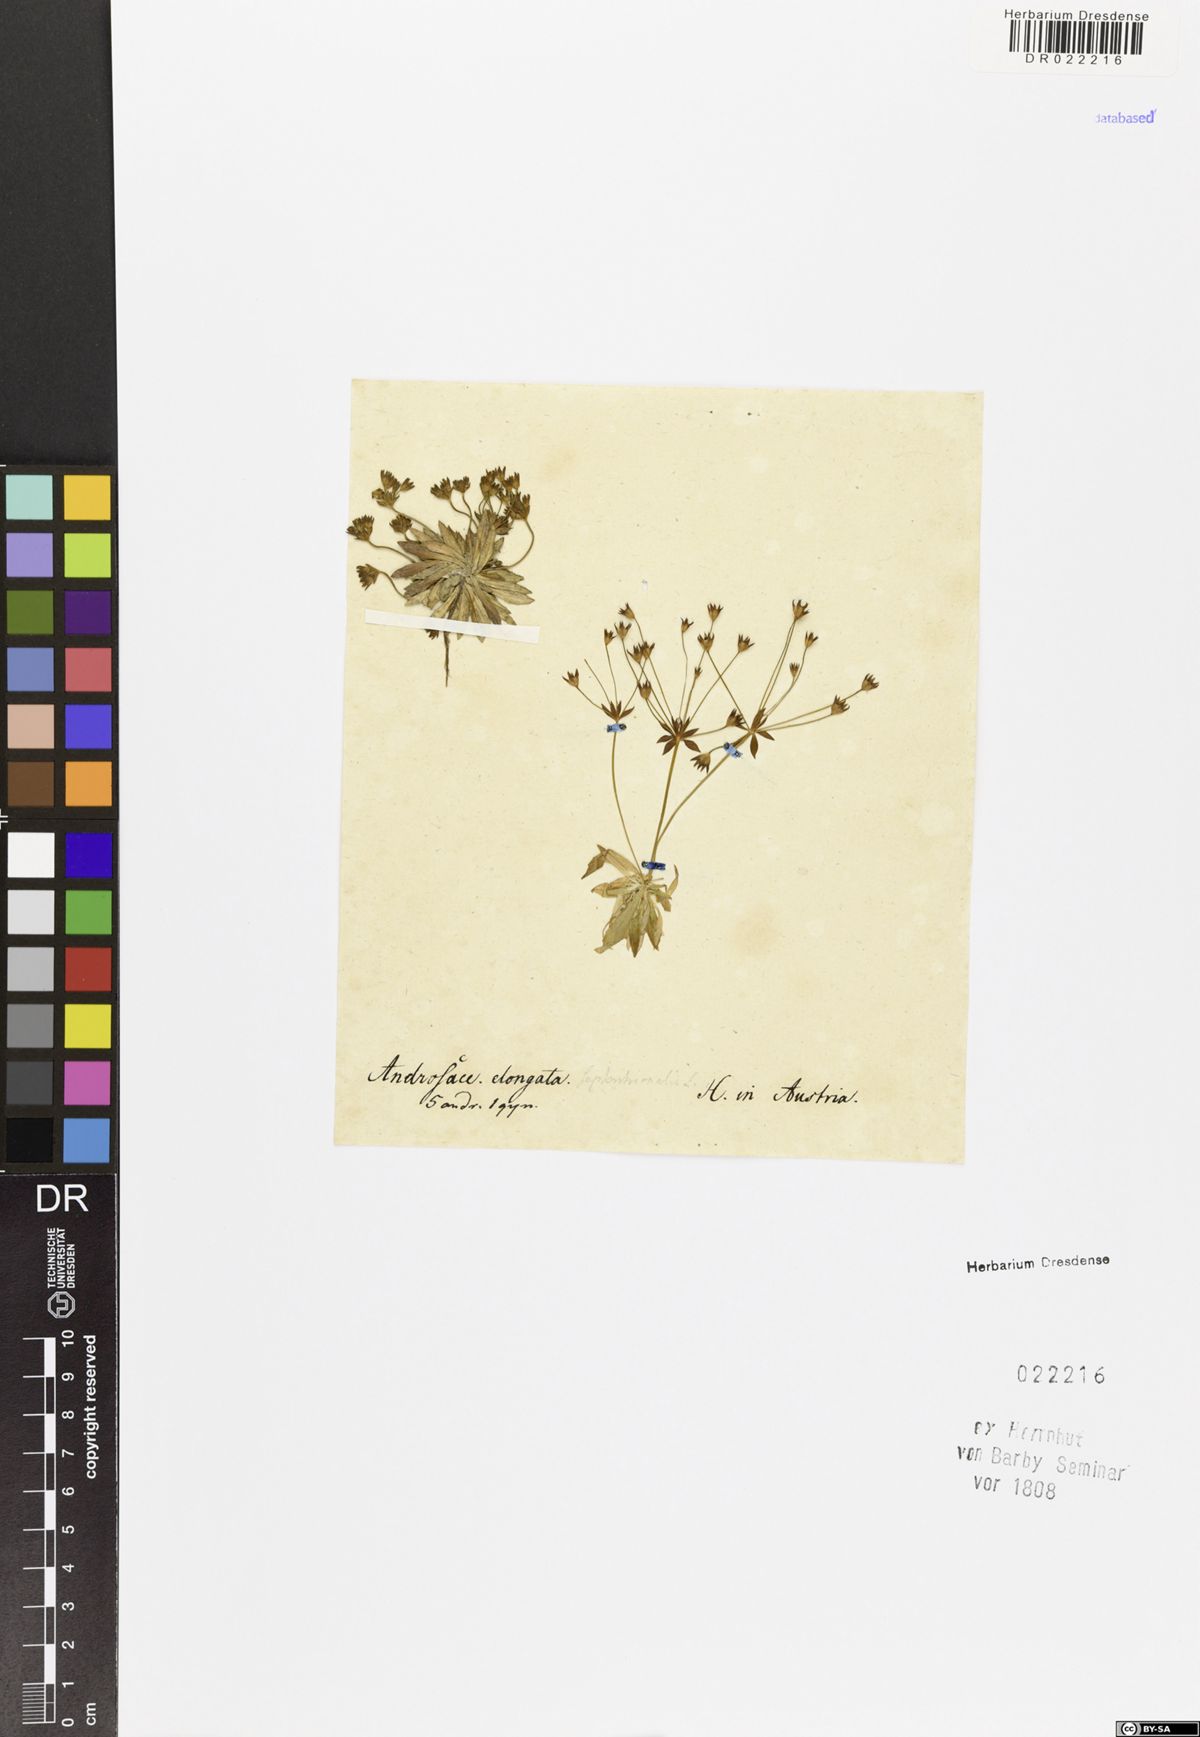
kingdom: Plantae
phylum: Tracheophyta
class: Magnoliopsida
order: Ericales
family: Primulaceae
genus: Androsace
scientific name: Androsace elongata
